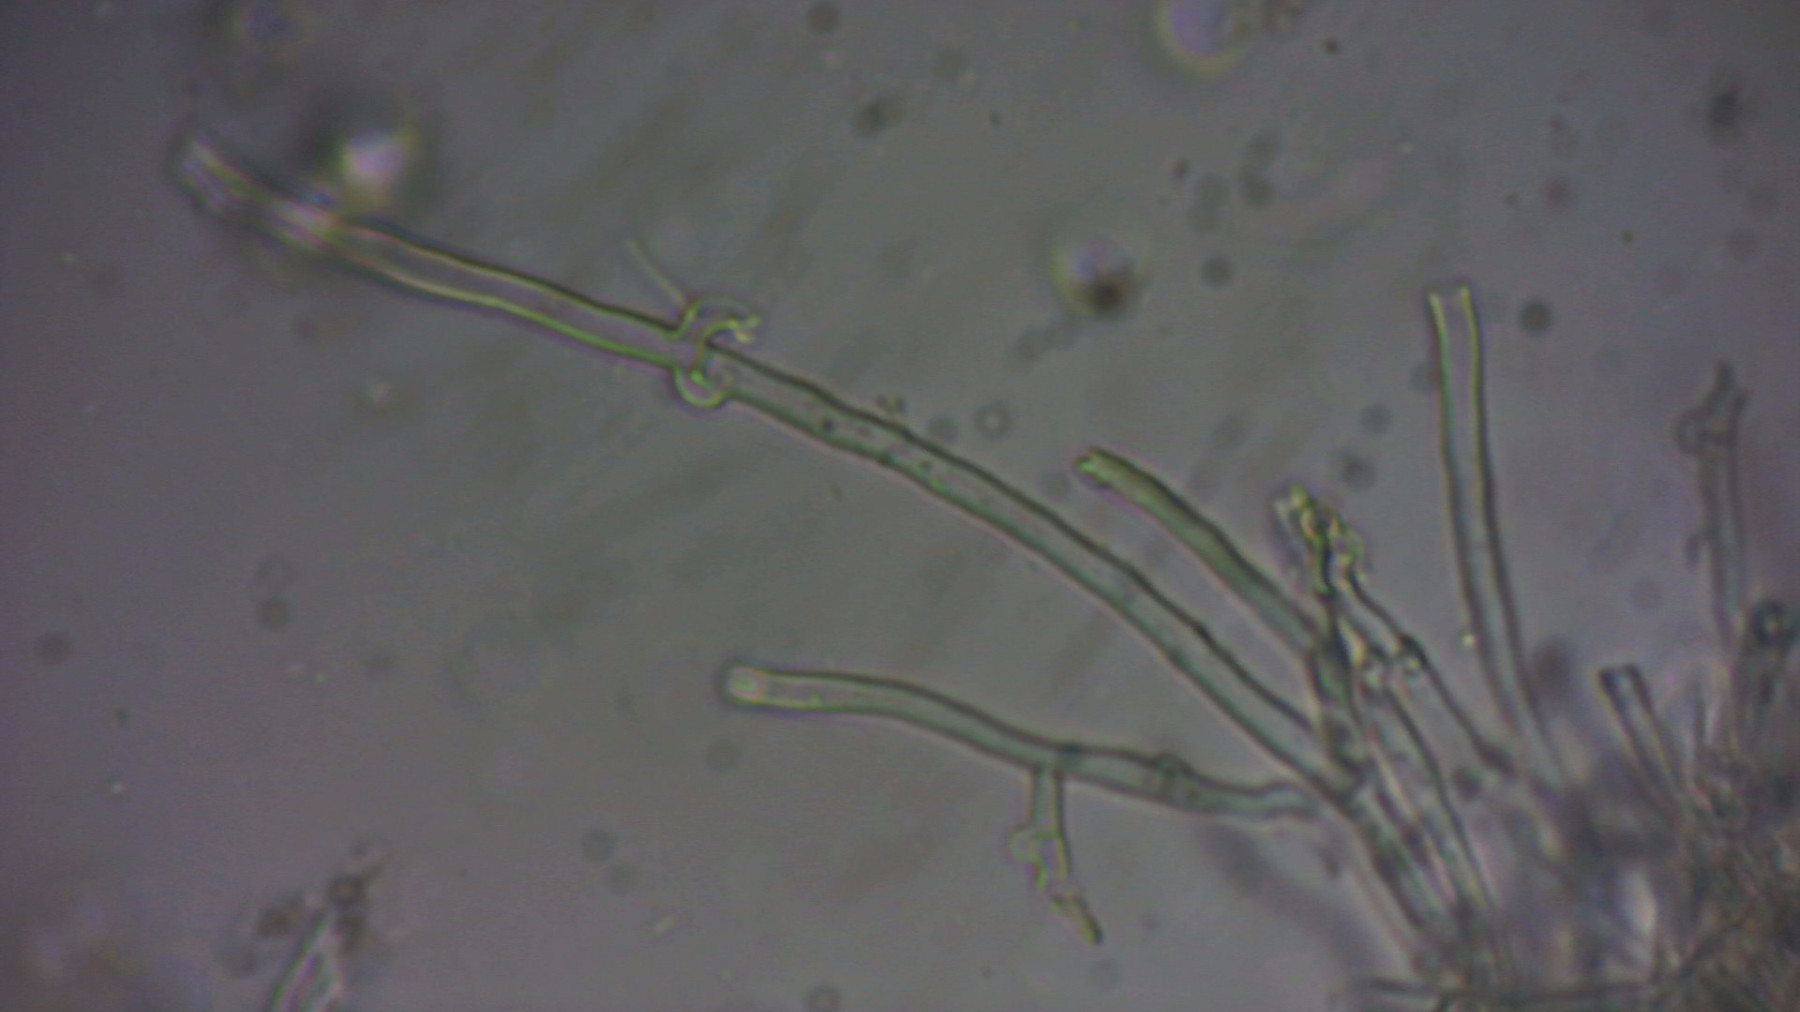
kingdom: Fungi
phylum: Basidiomycota
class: Agaricomycetes
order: Hymenochaetales
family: Schizoporaceae
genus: Xylodon
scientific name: Xylodon subtropicus
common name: labyrint-tandsvamp
